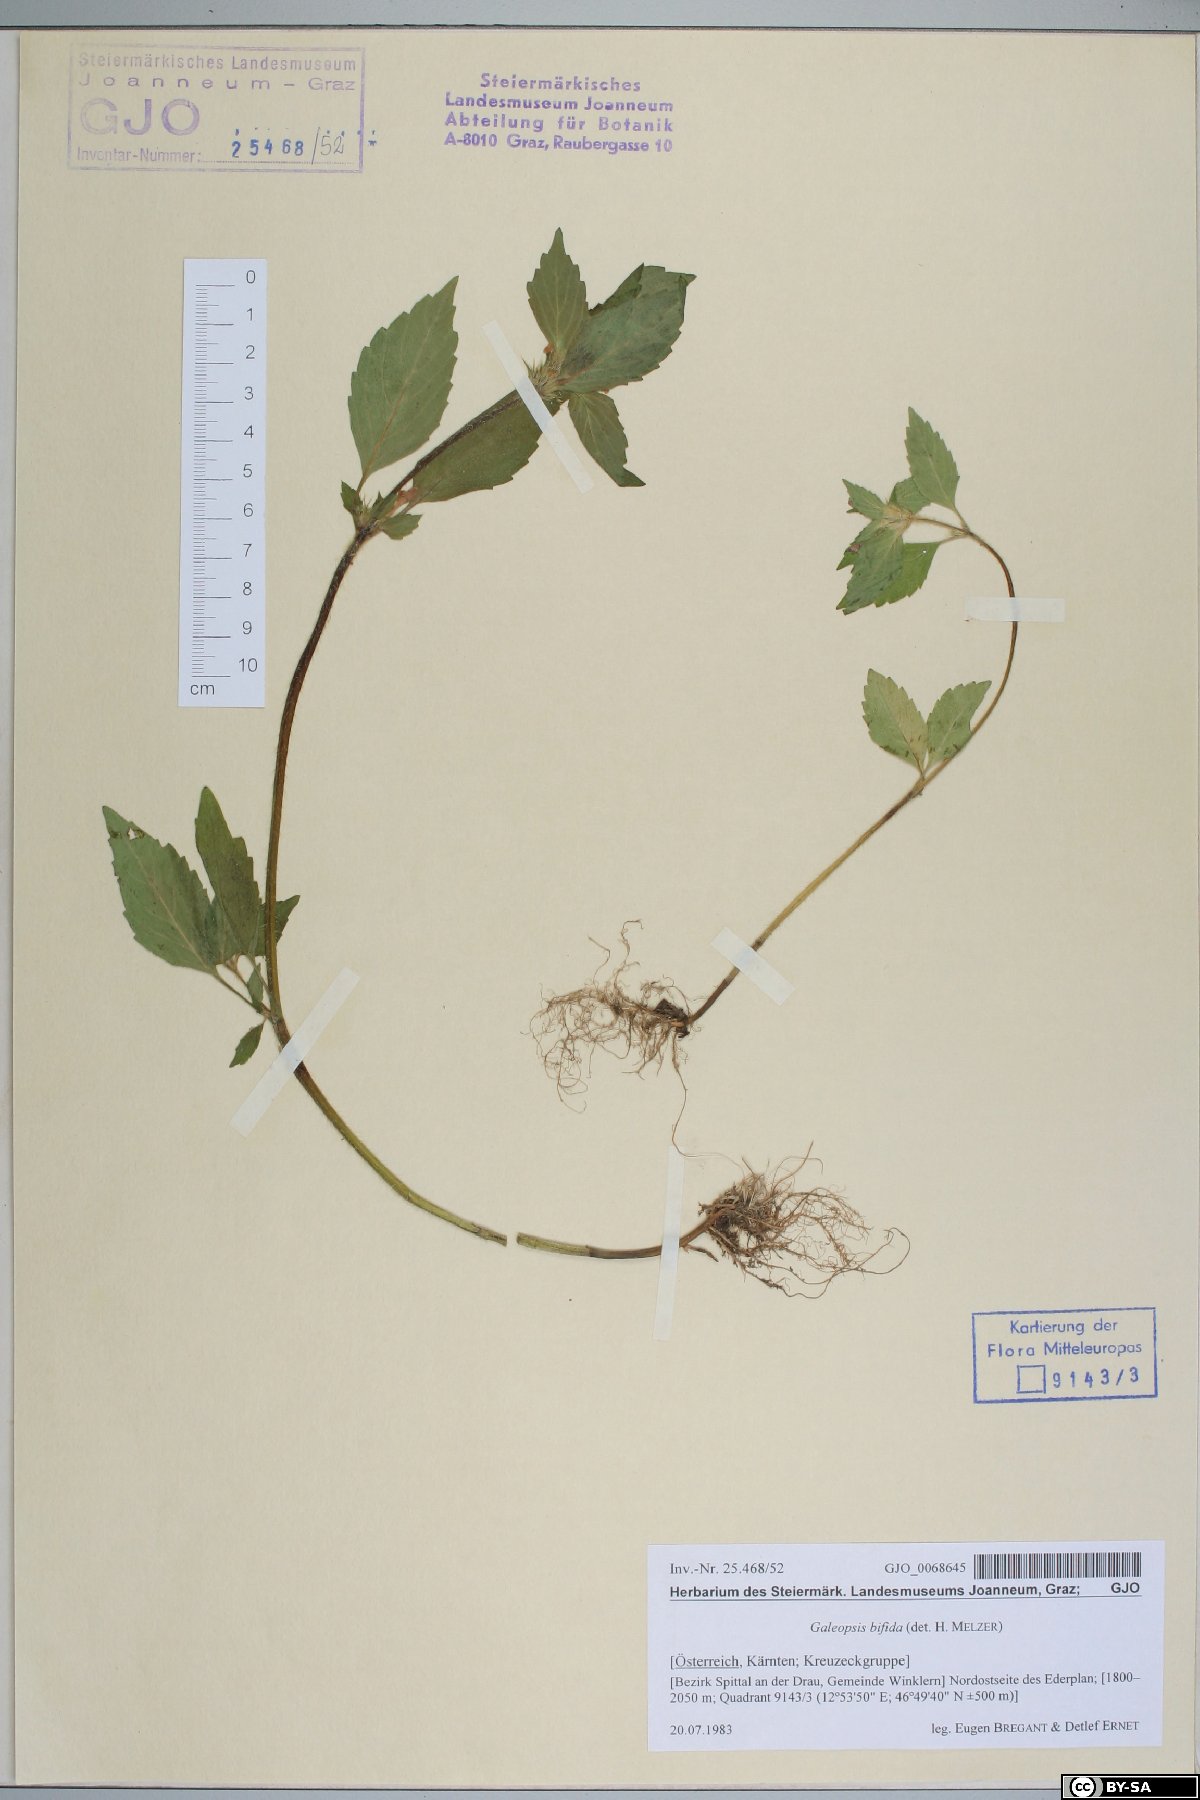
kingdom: Plantae
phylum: Tracheophyta
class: Magnoliopsida
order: Lamiales
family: Lamiaceae
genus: Galeopsis
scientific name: Galeopsis bifida
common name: Bifid hemp-nettle
